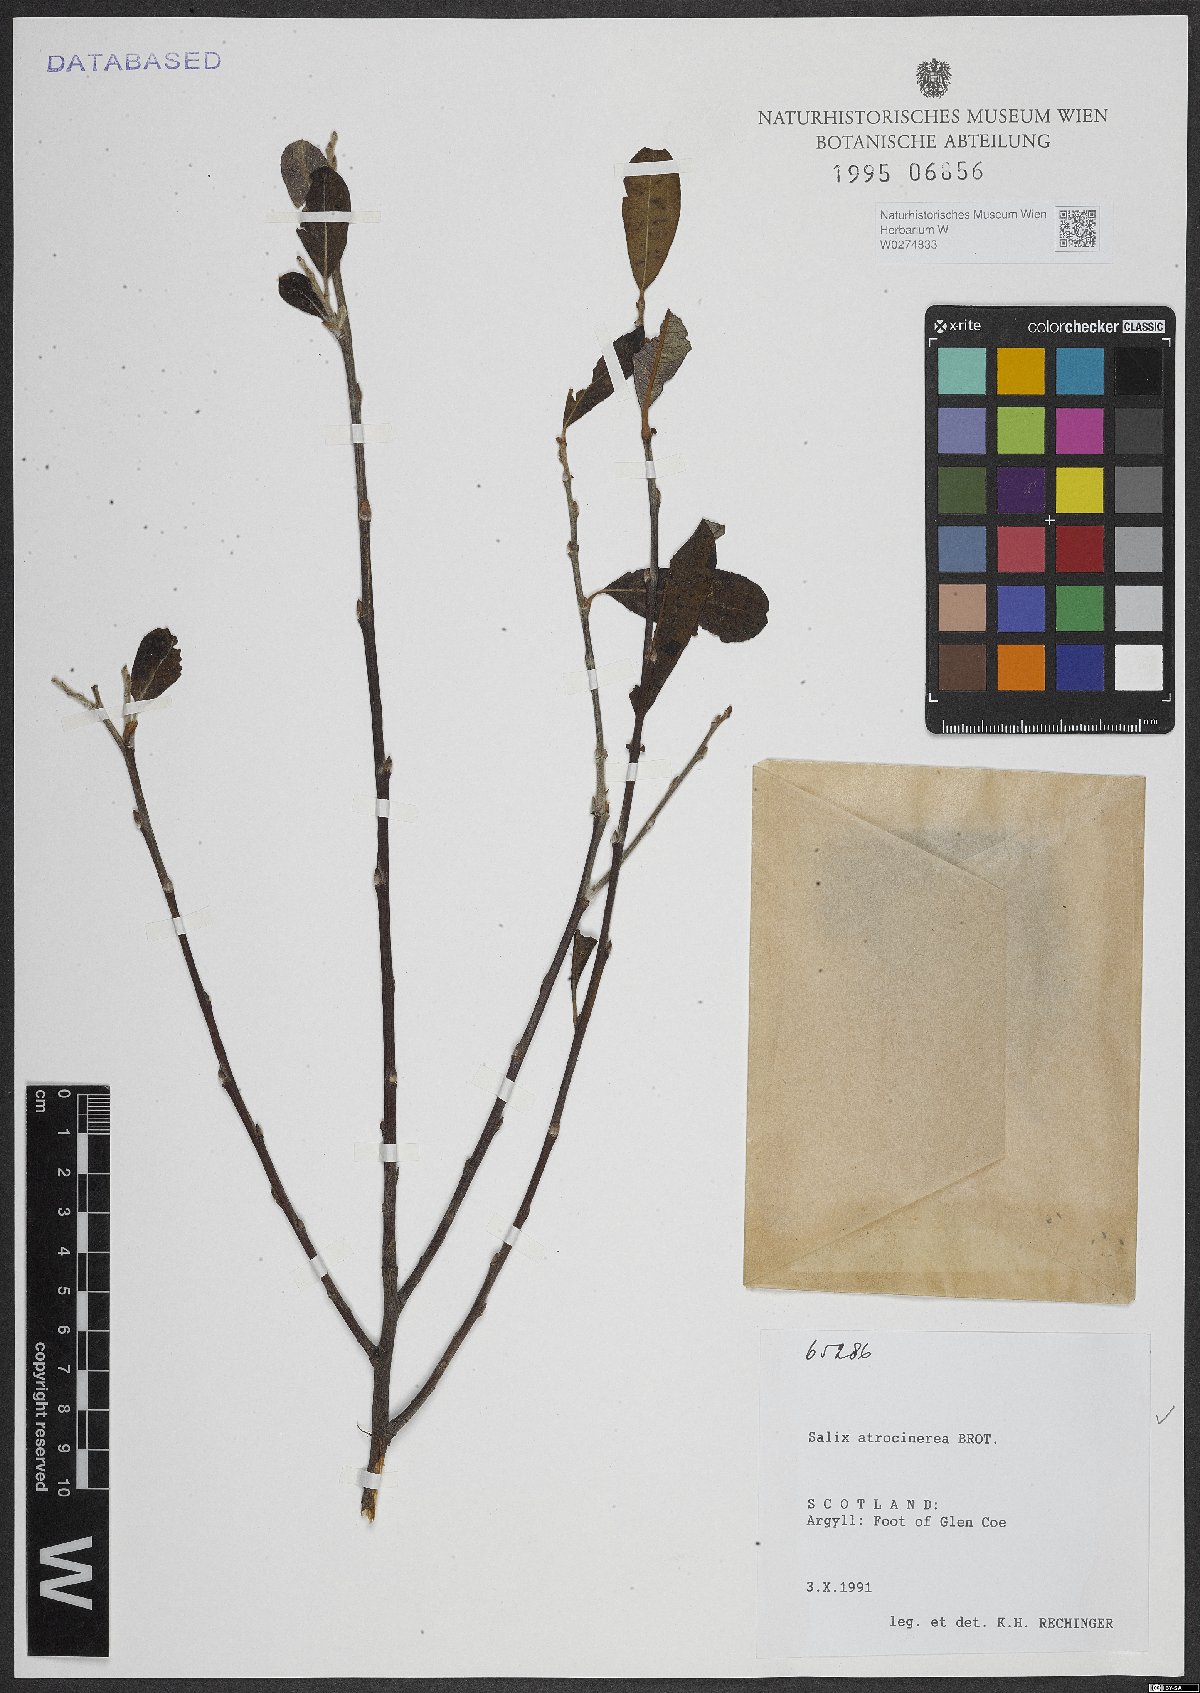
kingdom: Plantae
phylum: Tracheophyta
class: Magnoliopsida
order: Malpighiales
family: Salicaceae
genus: Salix
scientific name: Salix atrocinerea
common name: Rusty willow
